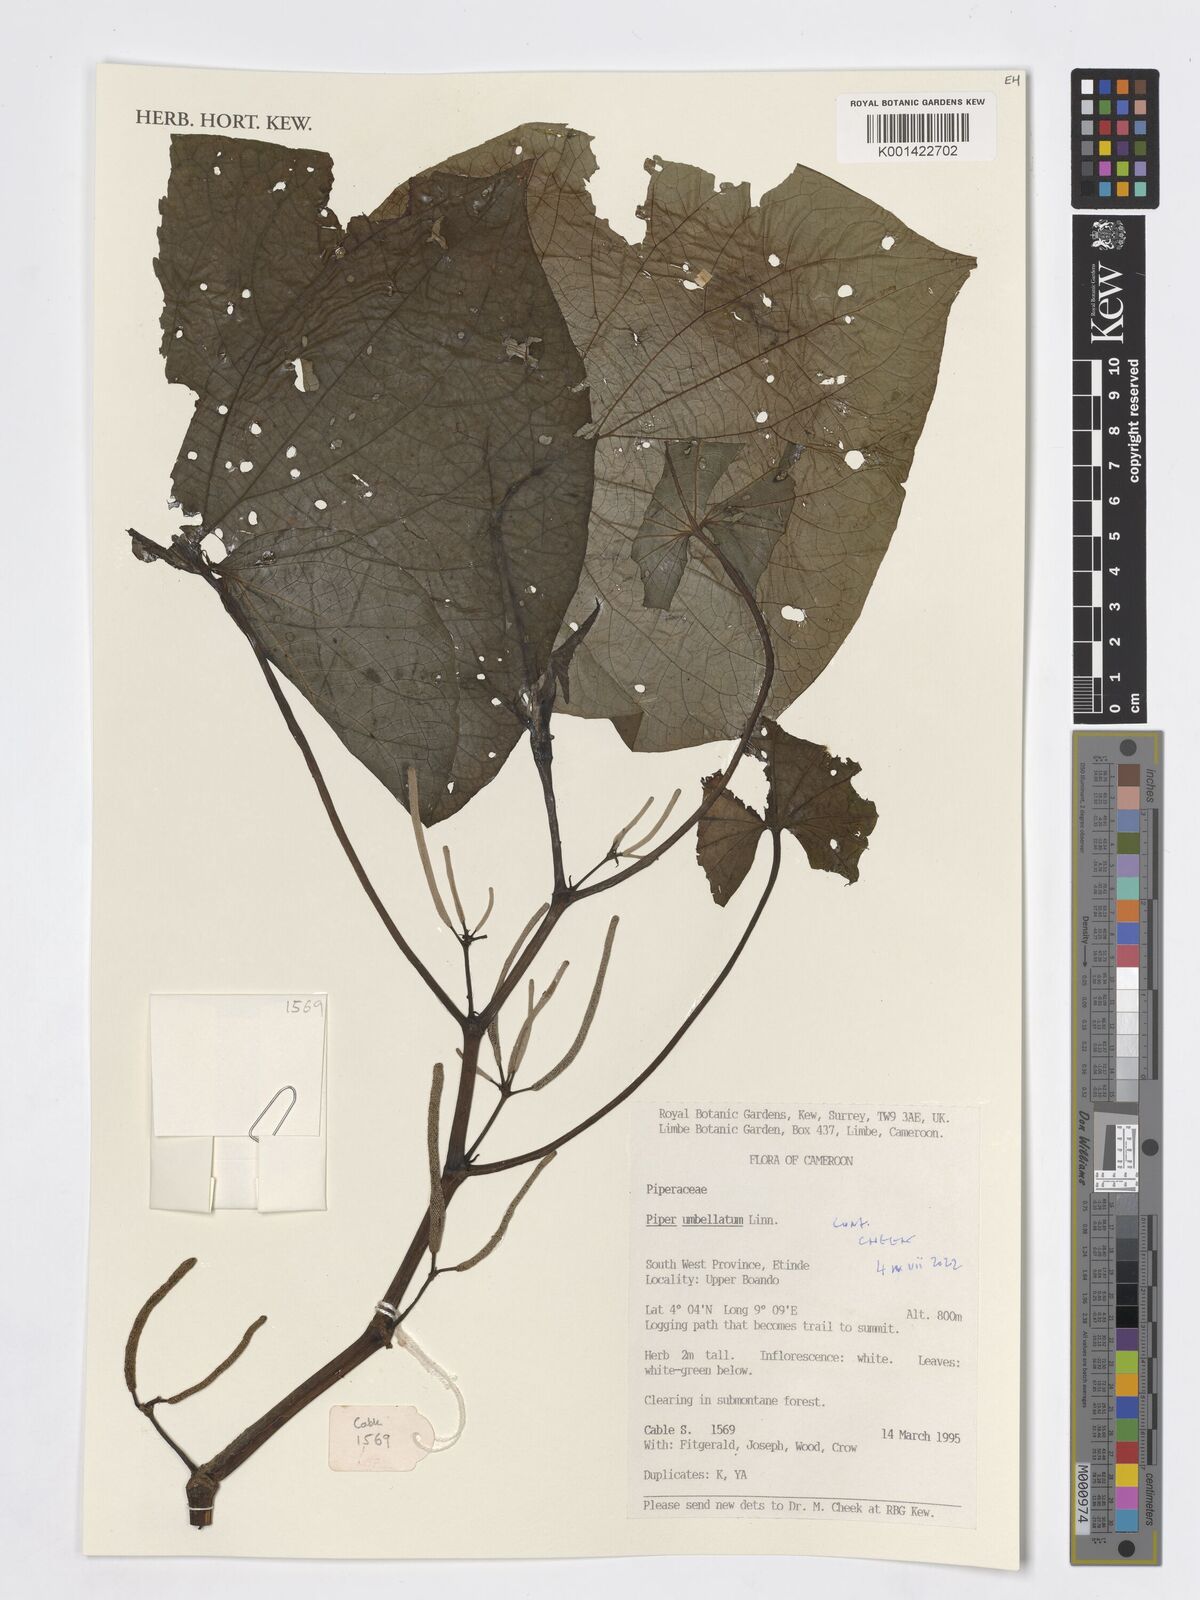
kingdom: Plantae
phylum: Tracheophyta
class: Magnoliopsida
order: Piperales
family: Piperaceae
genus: Piper
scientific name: Piper umbellatum
